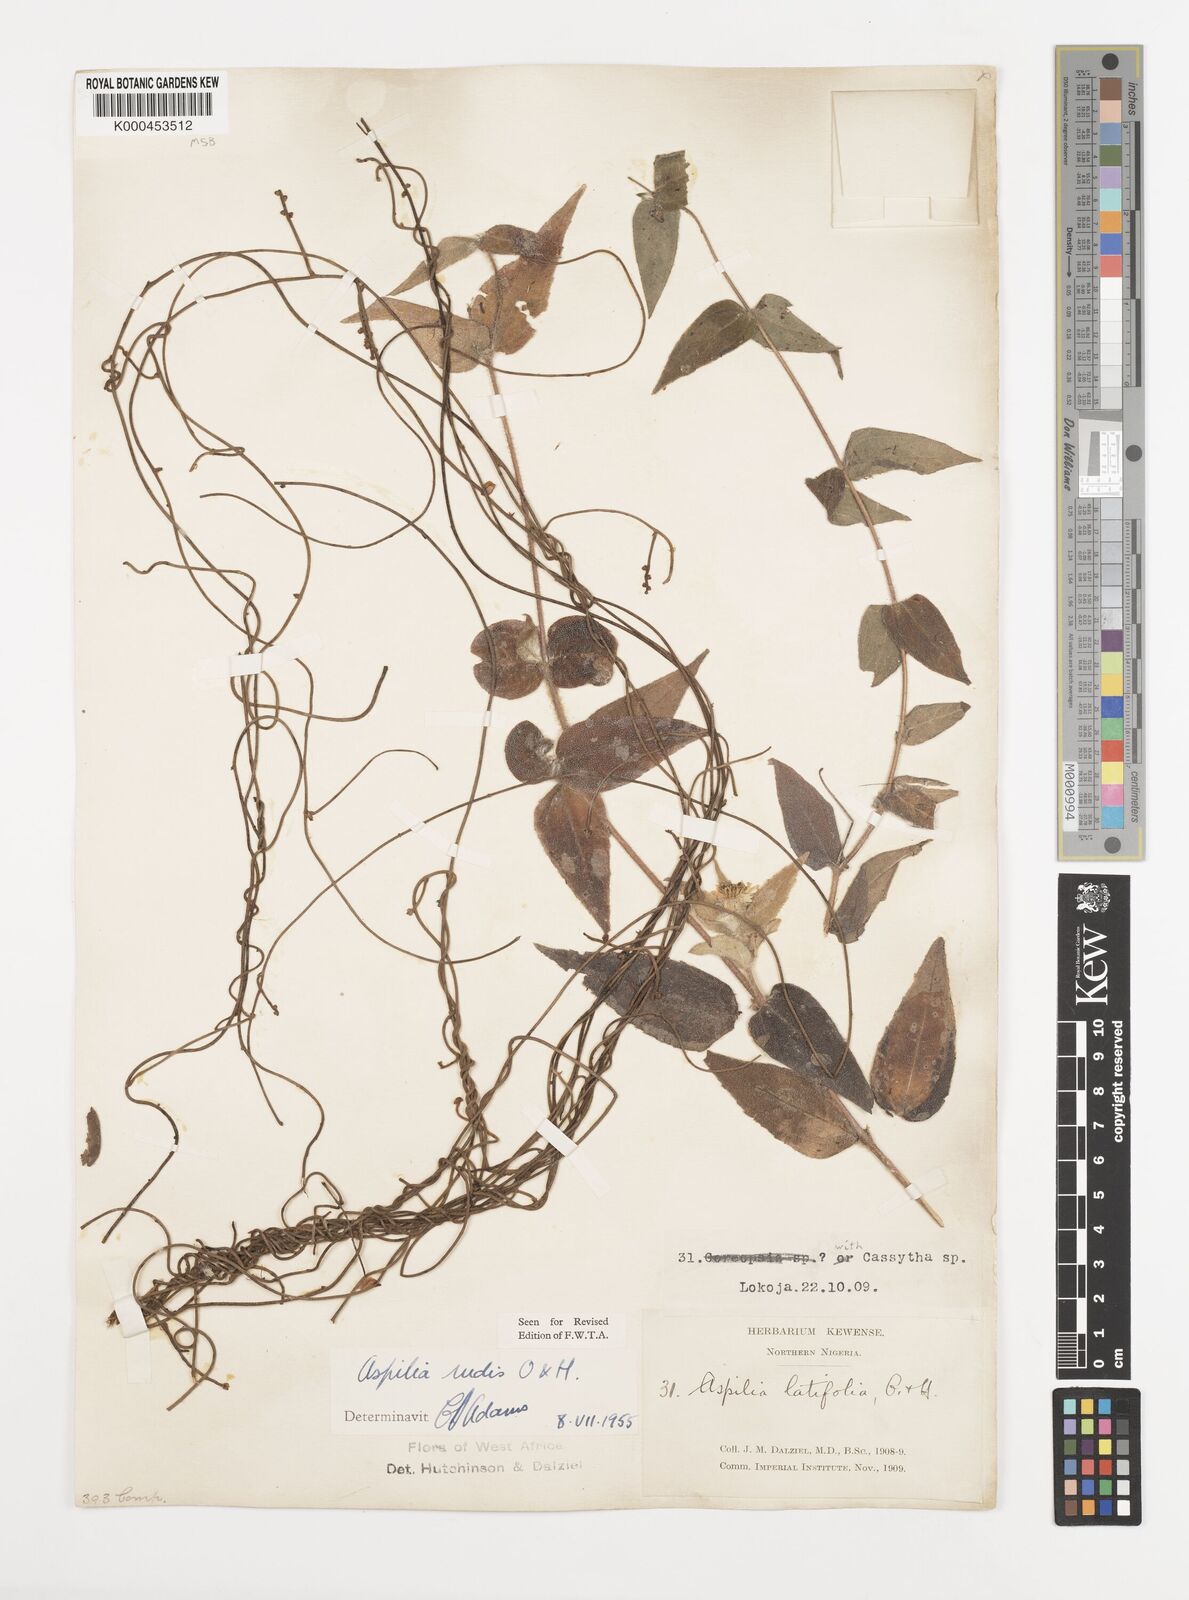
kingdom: Plantae
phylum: Tracheophyta
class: Magnoliopsida
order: Asterales
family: Asteraceae
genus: Aspilia
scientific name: Aspilia rudis
